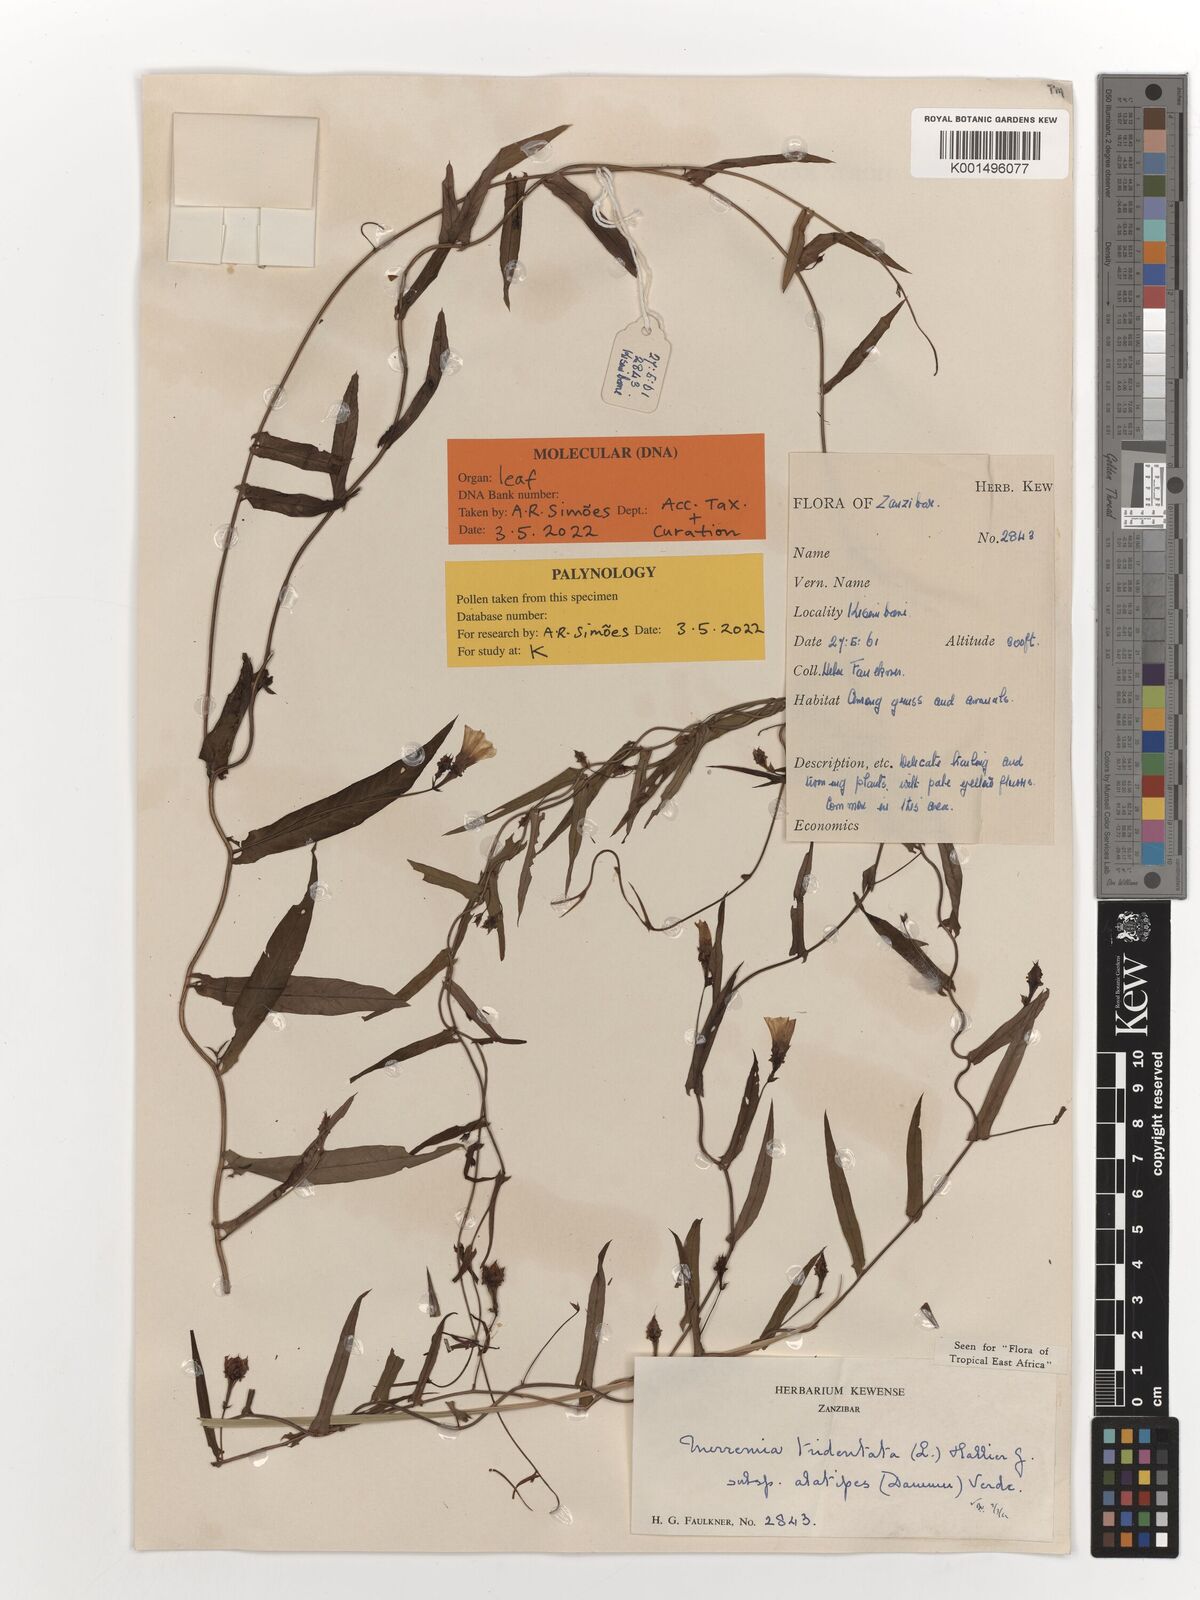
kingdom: Plantae
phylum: Tracheophyta
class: Magnoliopsida
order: Solanales
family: Convolvulaceae
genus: Xenostegia
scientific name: Xenostegia alatipes
